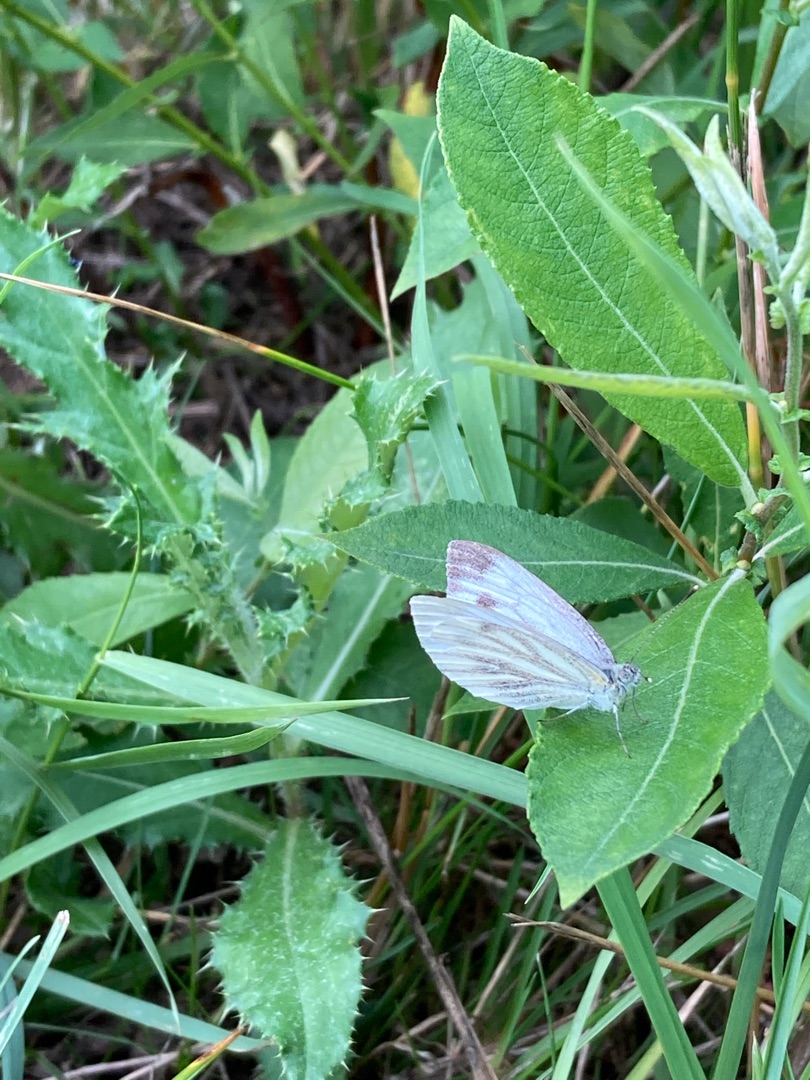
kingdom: Animalia
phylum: Arthropoda
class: Insecta
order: Lepidoptera
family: Pieridae
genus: Pieris
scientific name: Pieris napi
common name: Grønåret kålsommerfugl
